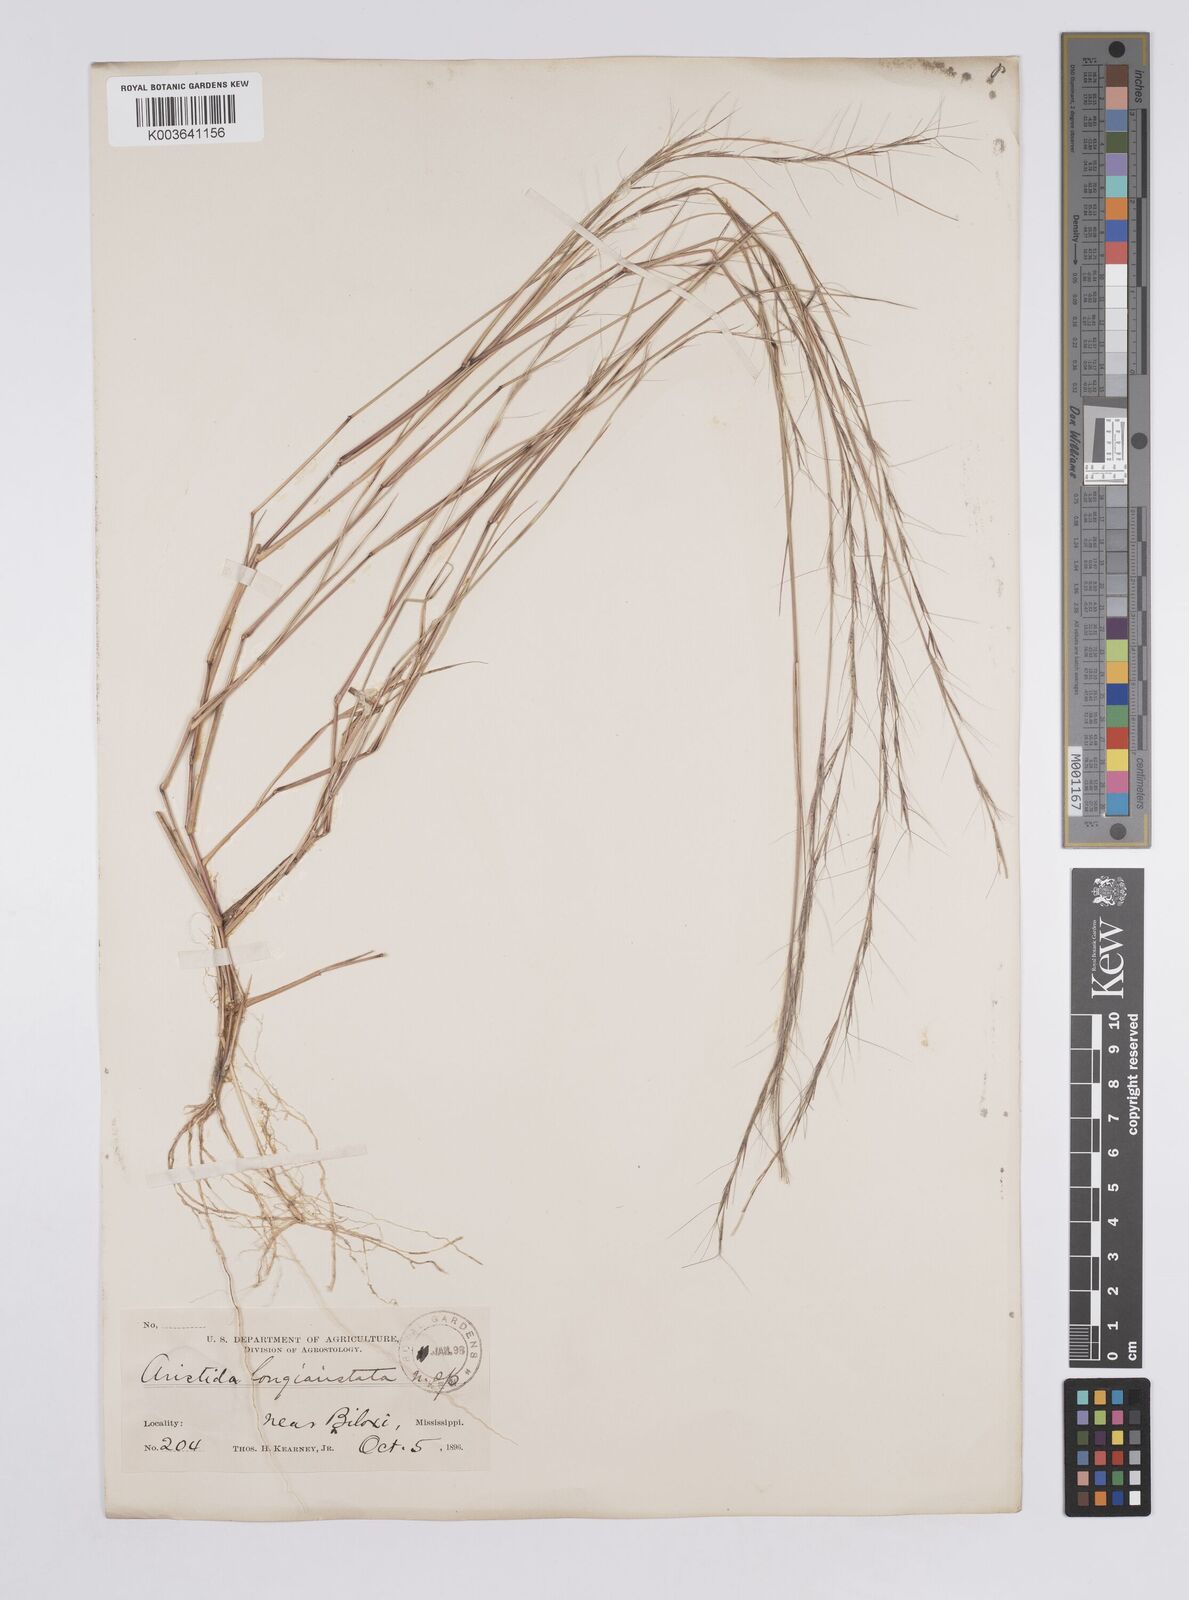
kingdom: Plantae
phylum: Tracheophyta
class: Liliopsida
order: Poales
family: Poaceae
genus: Aristida
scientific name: Aristida
